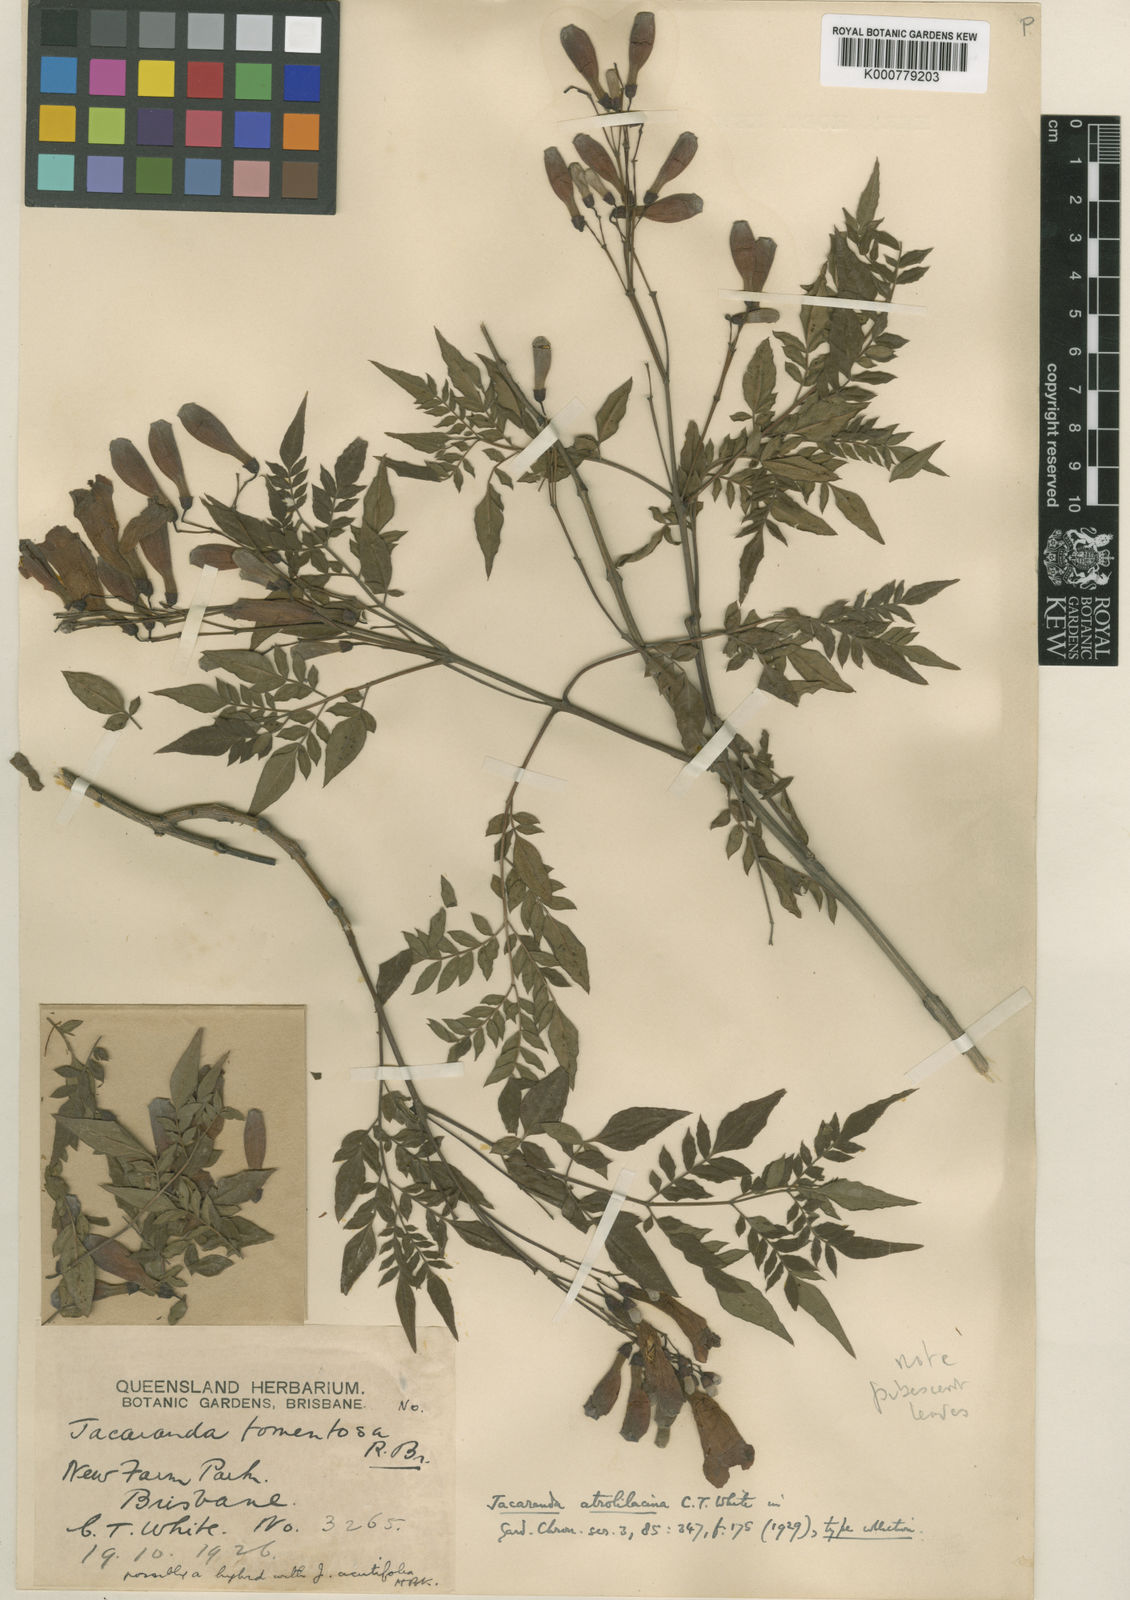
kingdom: Plantae
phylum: Tracheophyta
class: Magnoliopsida
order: Lamiales
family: Bignoniaceae
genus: Jacaranda
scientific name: Jacaranda atrolilacina
